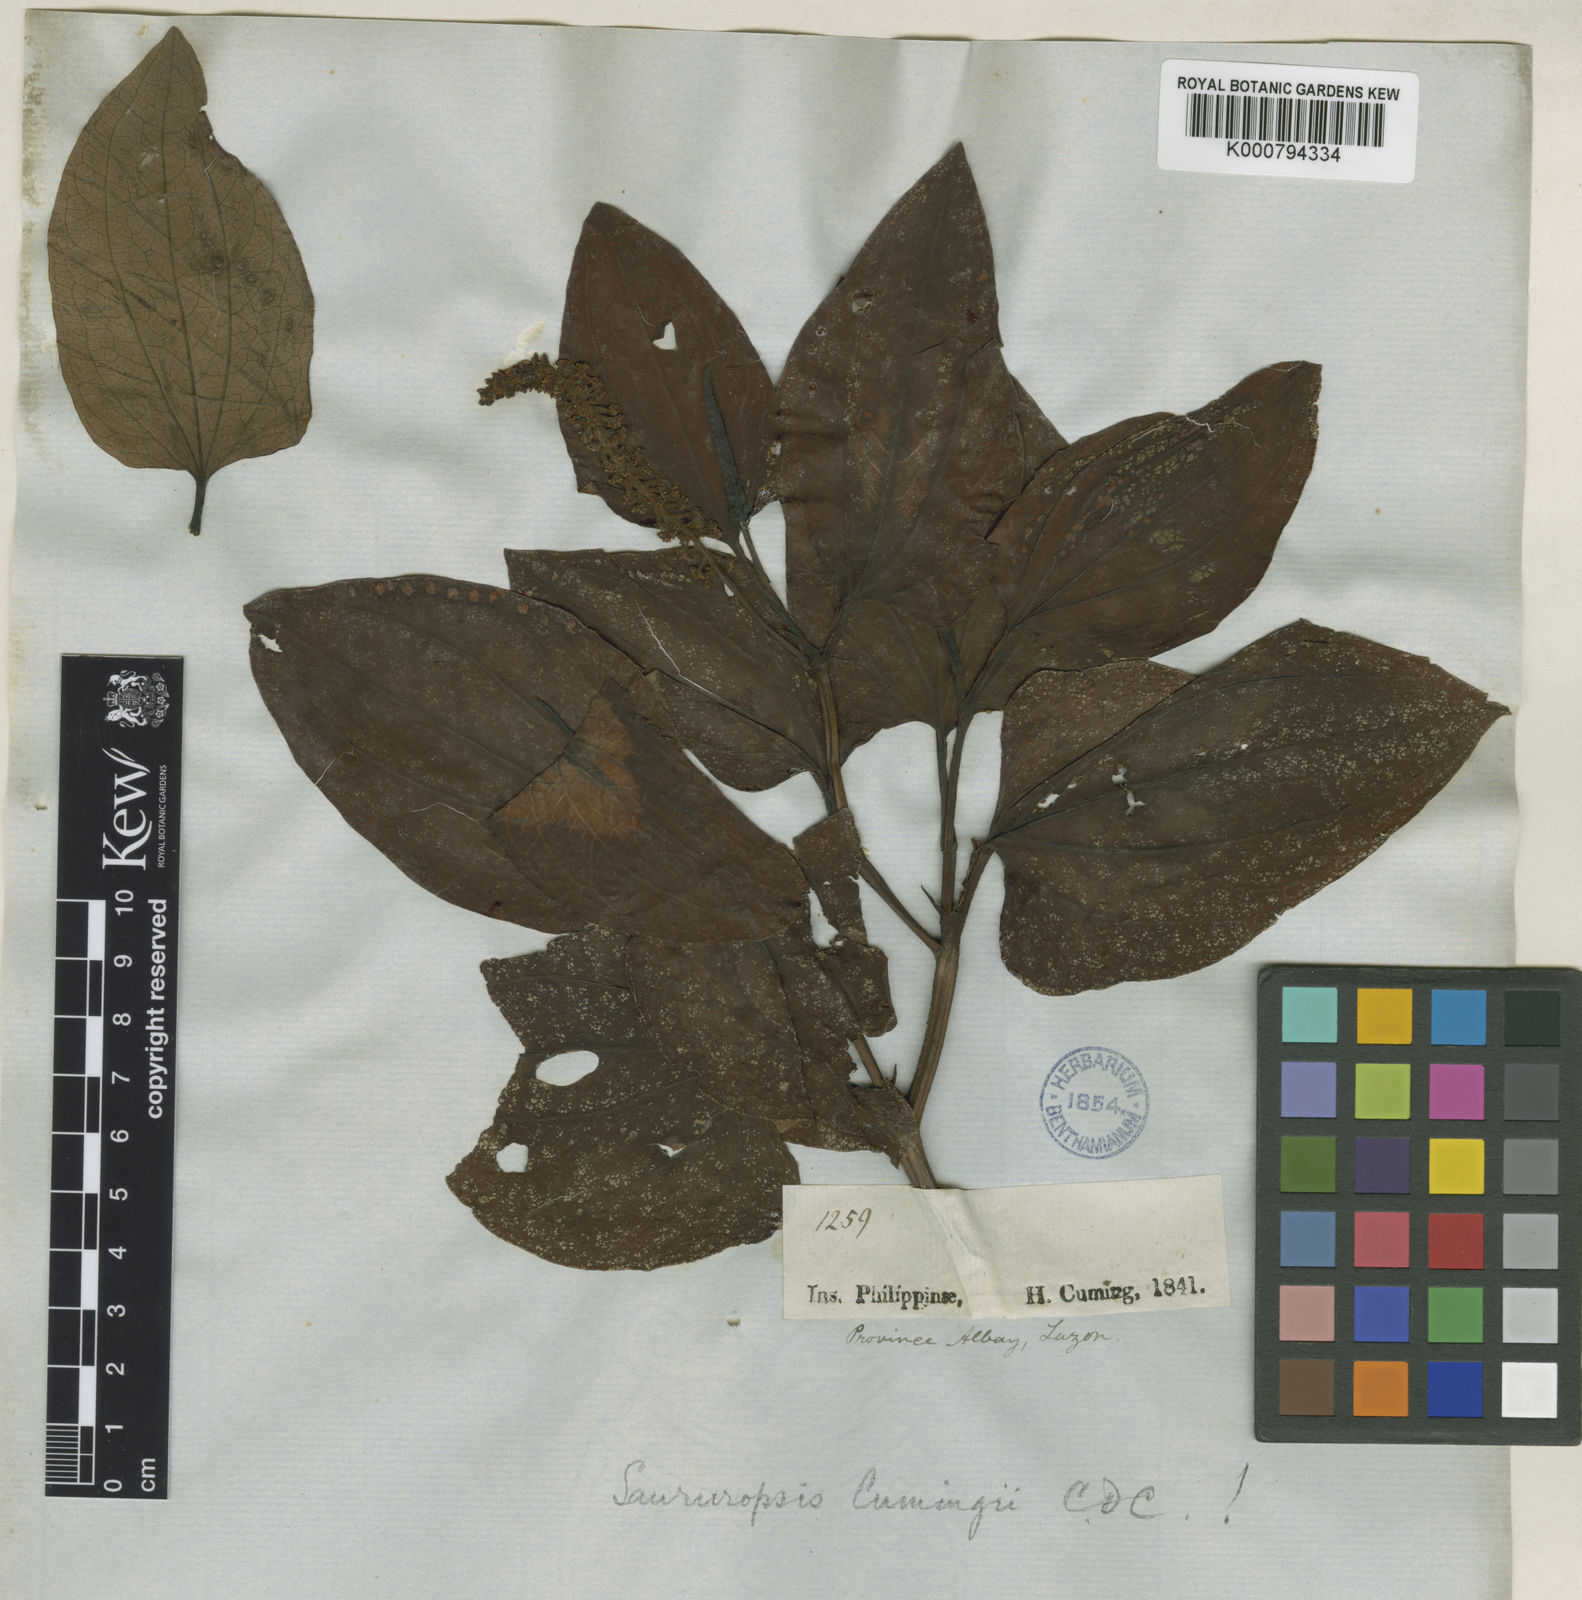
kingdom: Plantae
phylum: Tracheophyta
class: Magnoliopsida
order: Piperales
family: Saururaceae
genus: Saururus
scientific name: Saururus chinensis
